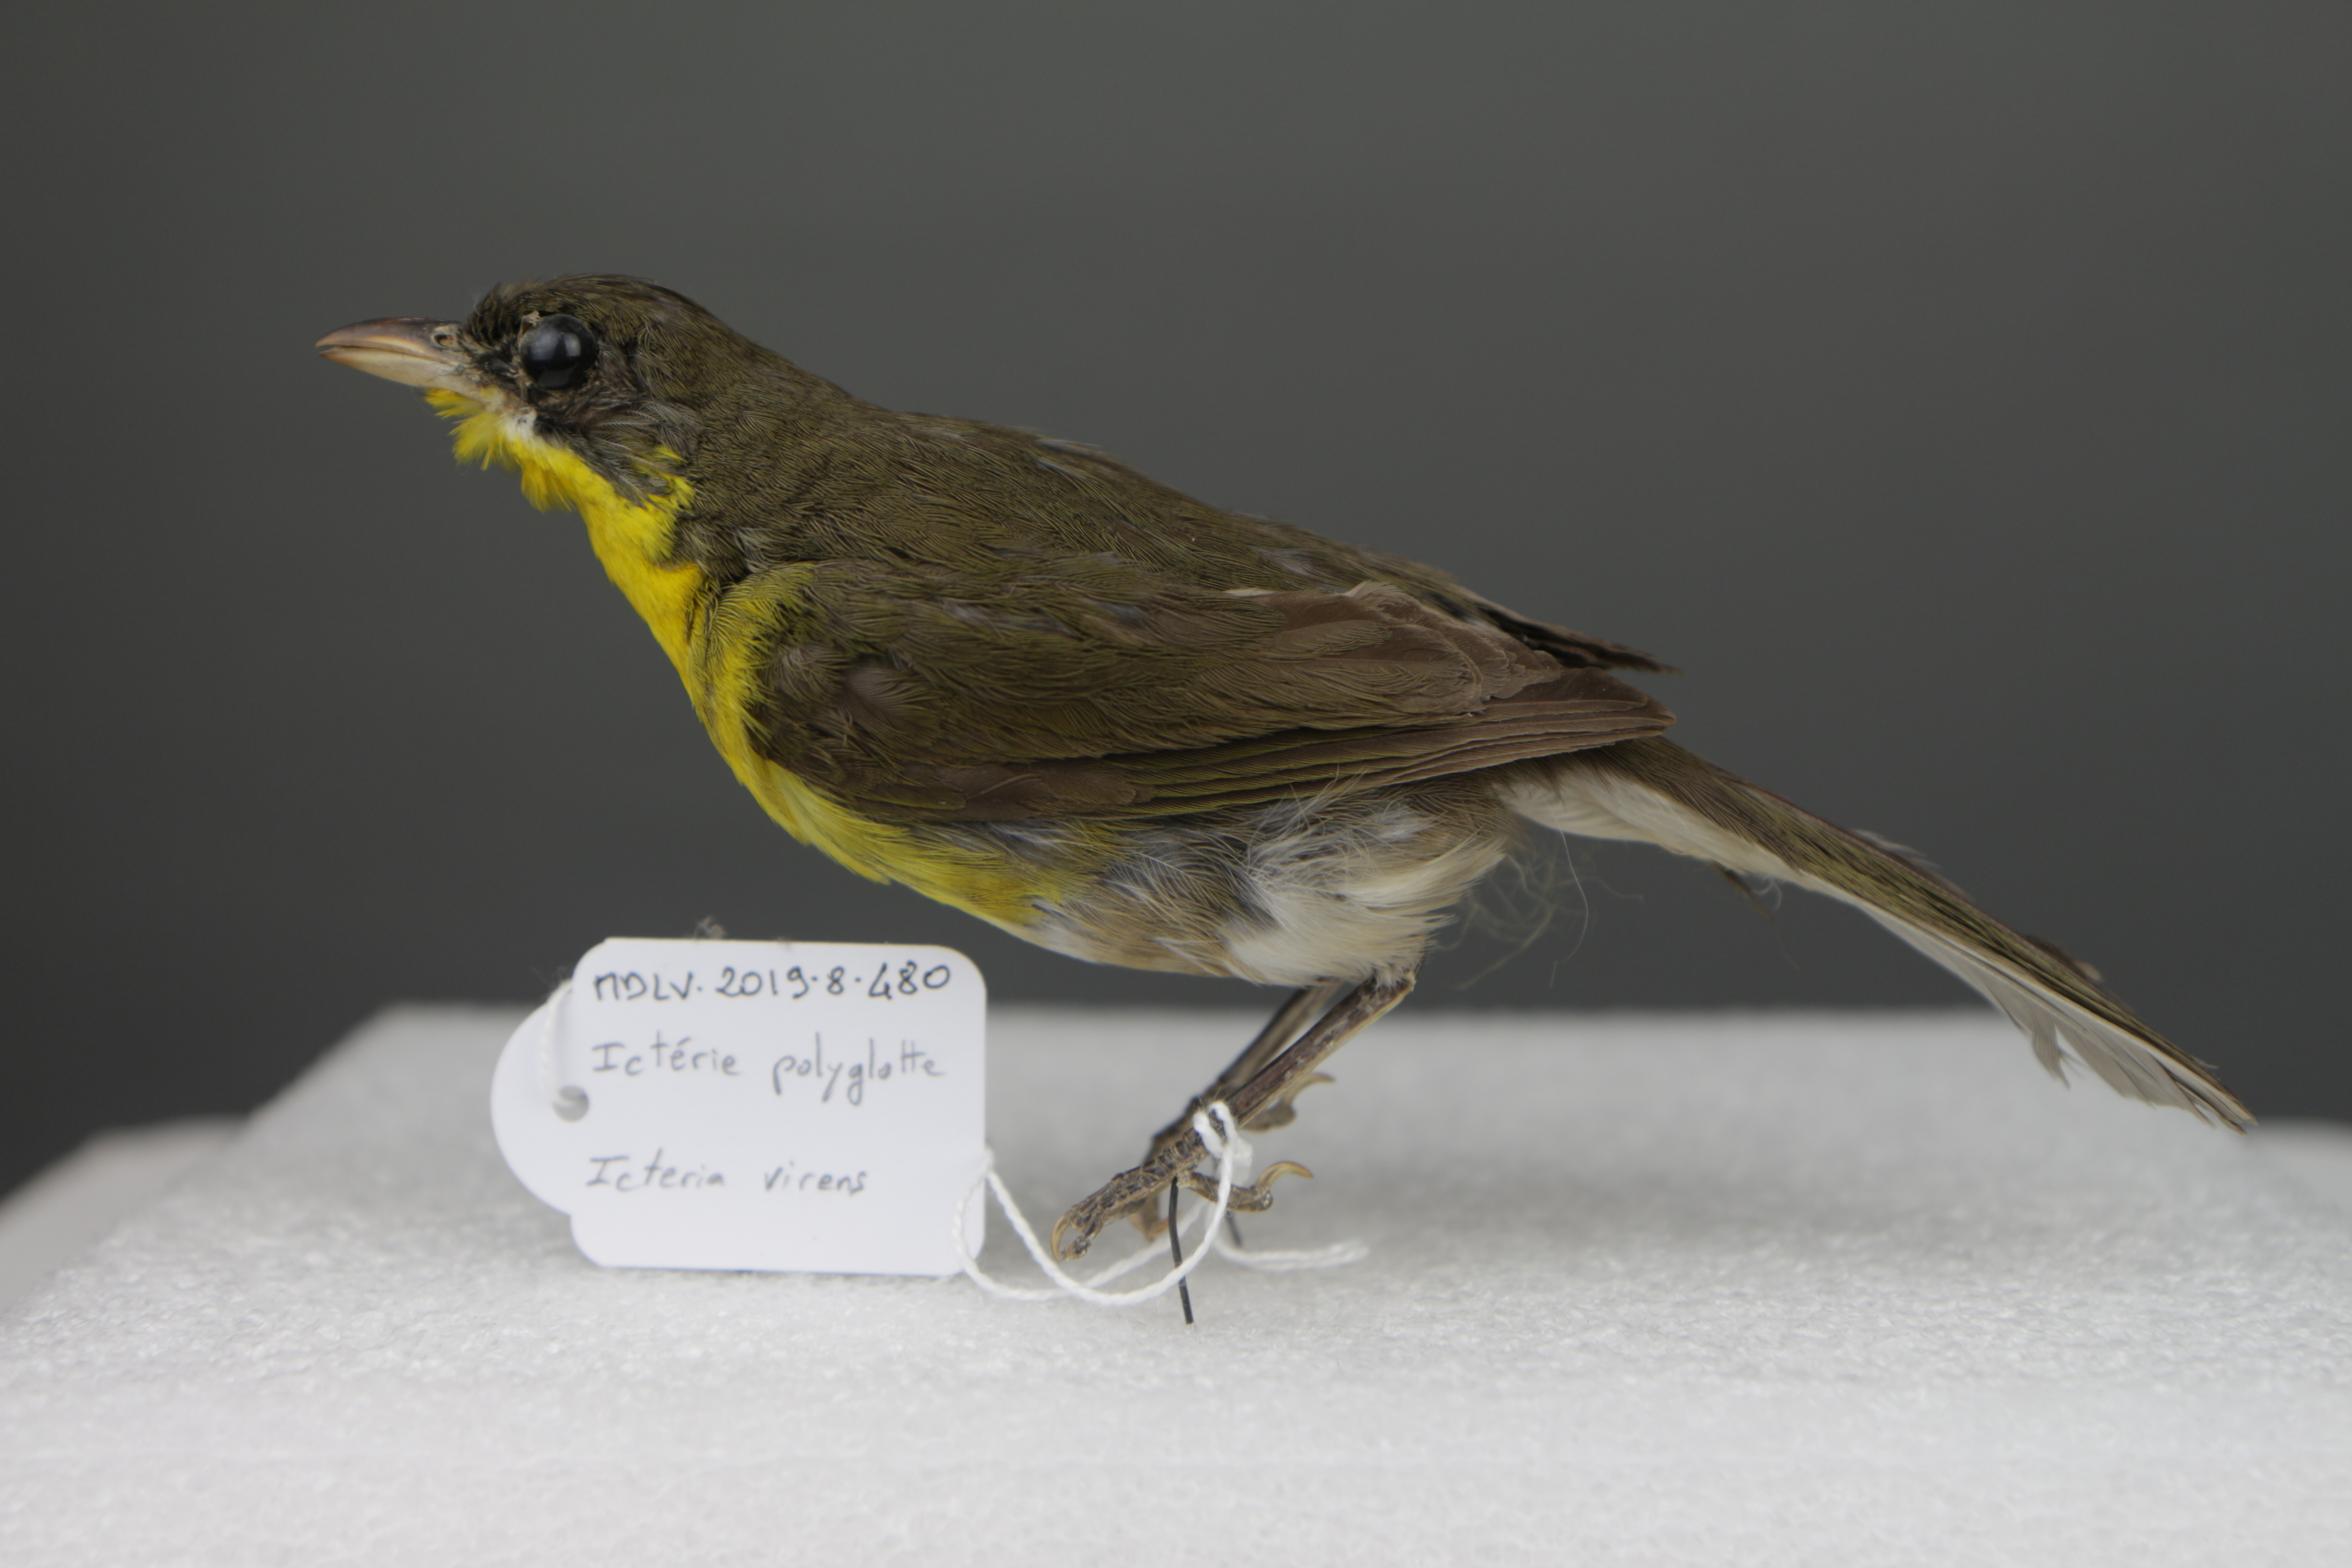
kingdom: Animalia
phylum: Chordata
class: Aves
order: Passeriformes
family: Parulidae
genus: Icteria
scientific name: Icteria virens
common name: Yellow-breasted chat
